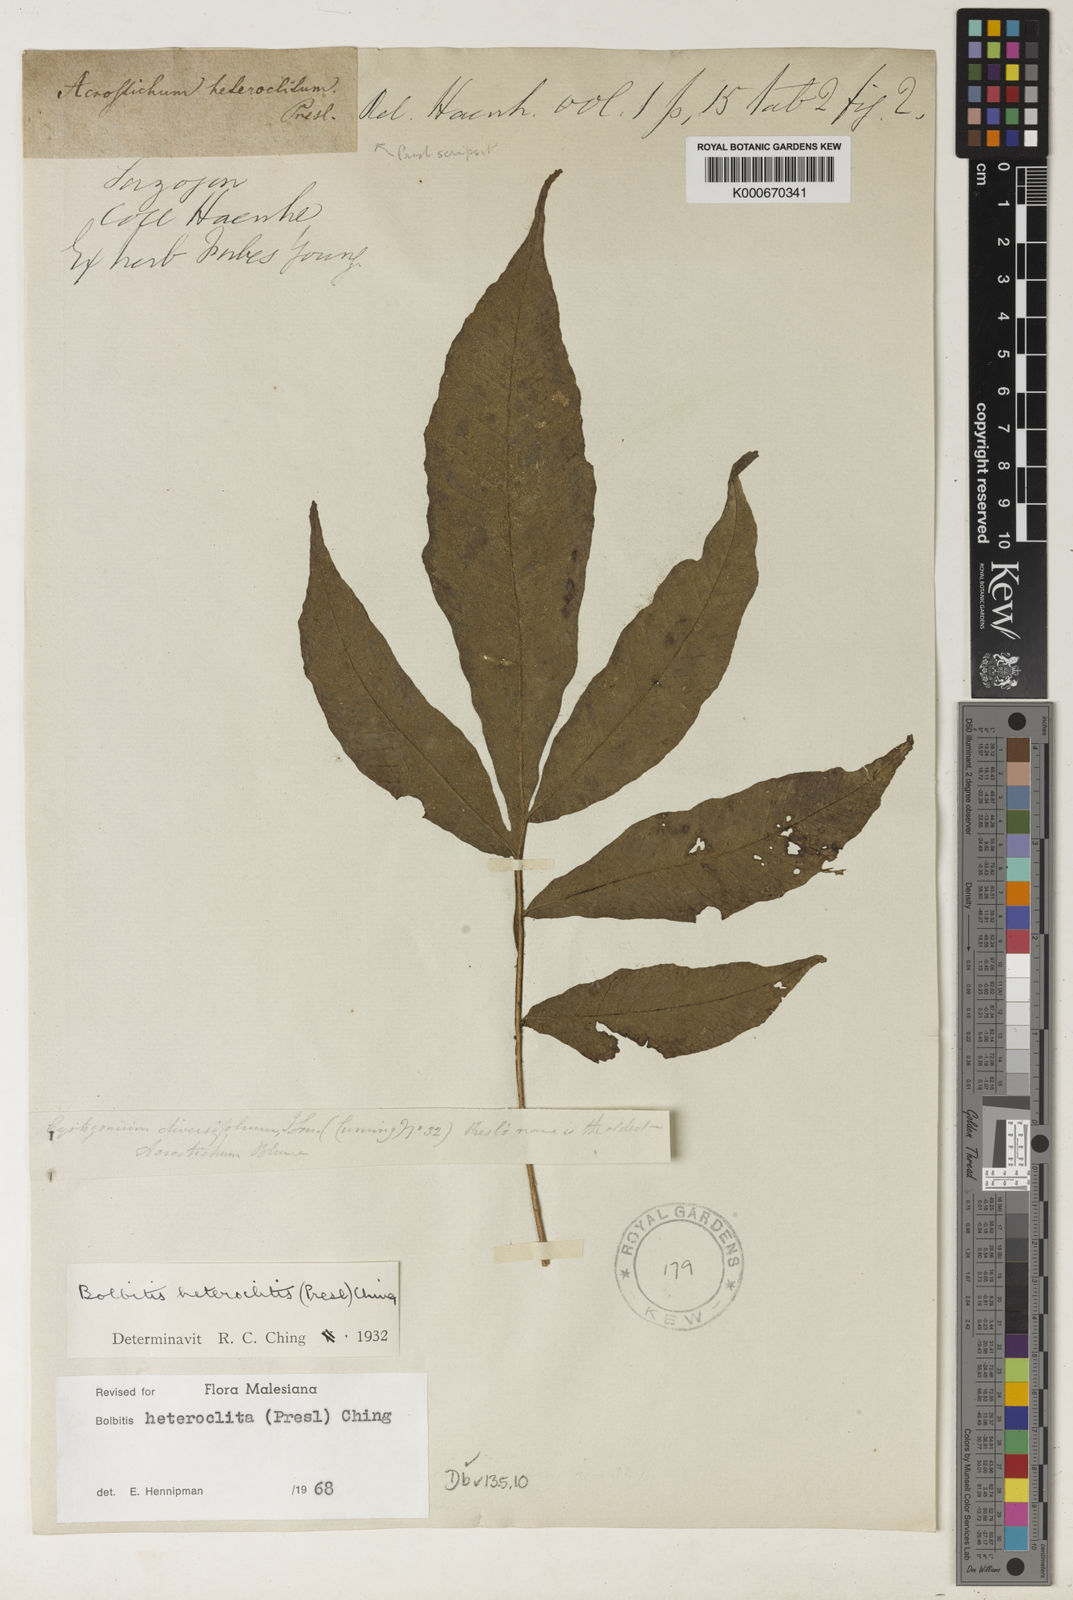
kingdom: Plantae
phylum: Tracheophyta
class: Polypodiopsida
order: Polypodiales
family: Dryopteridaceae
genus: Bolbitis
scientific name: Bolbitis heteroclita
